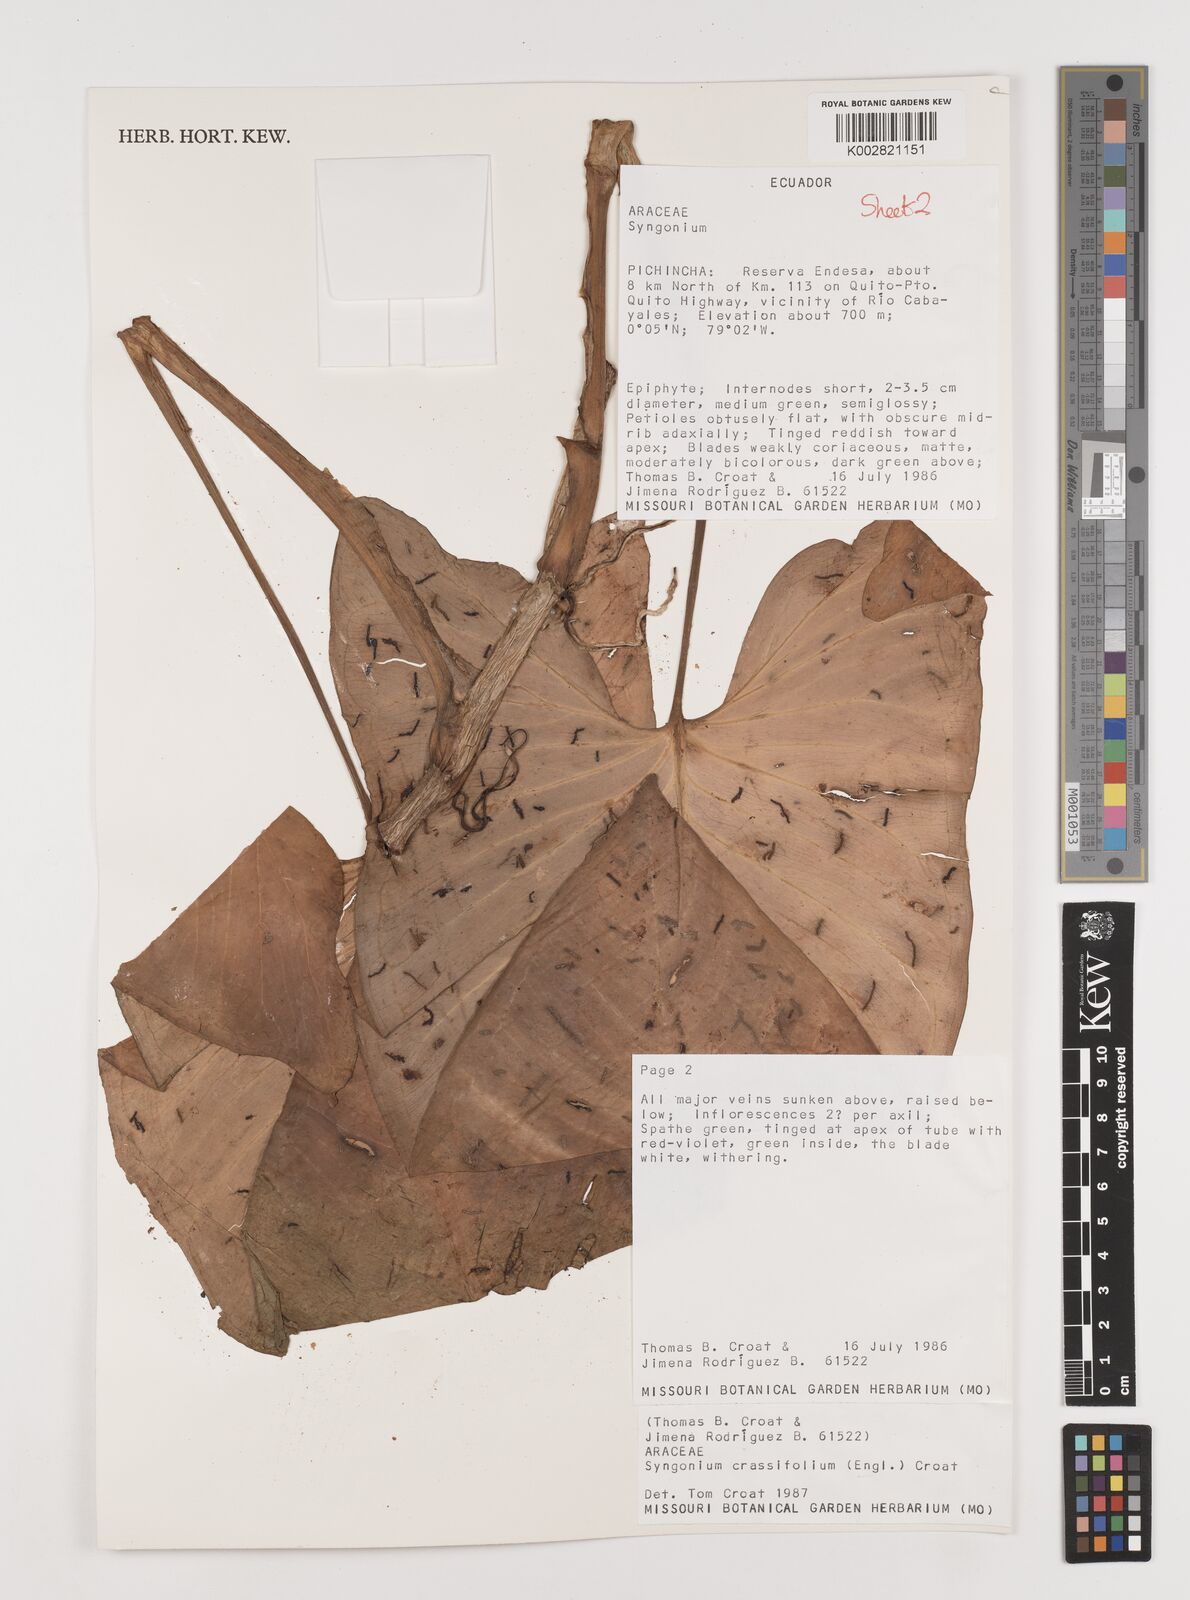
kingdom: Plantae
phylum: Tracheophyta
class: Liliopsida
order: Alismatales
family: Araceae
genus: Syngonium
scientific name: Syngonium crassifolium
